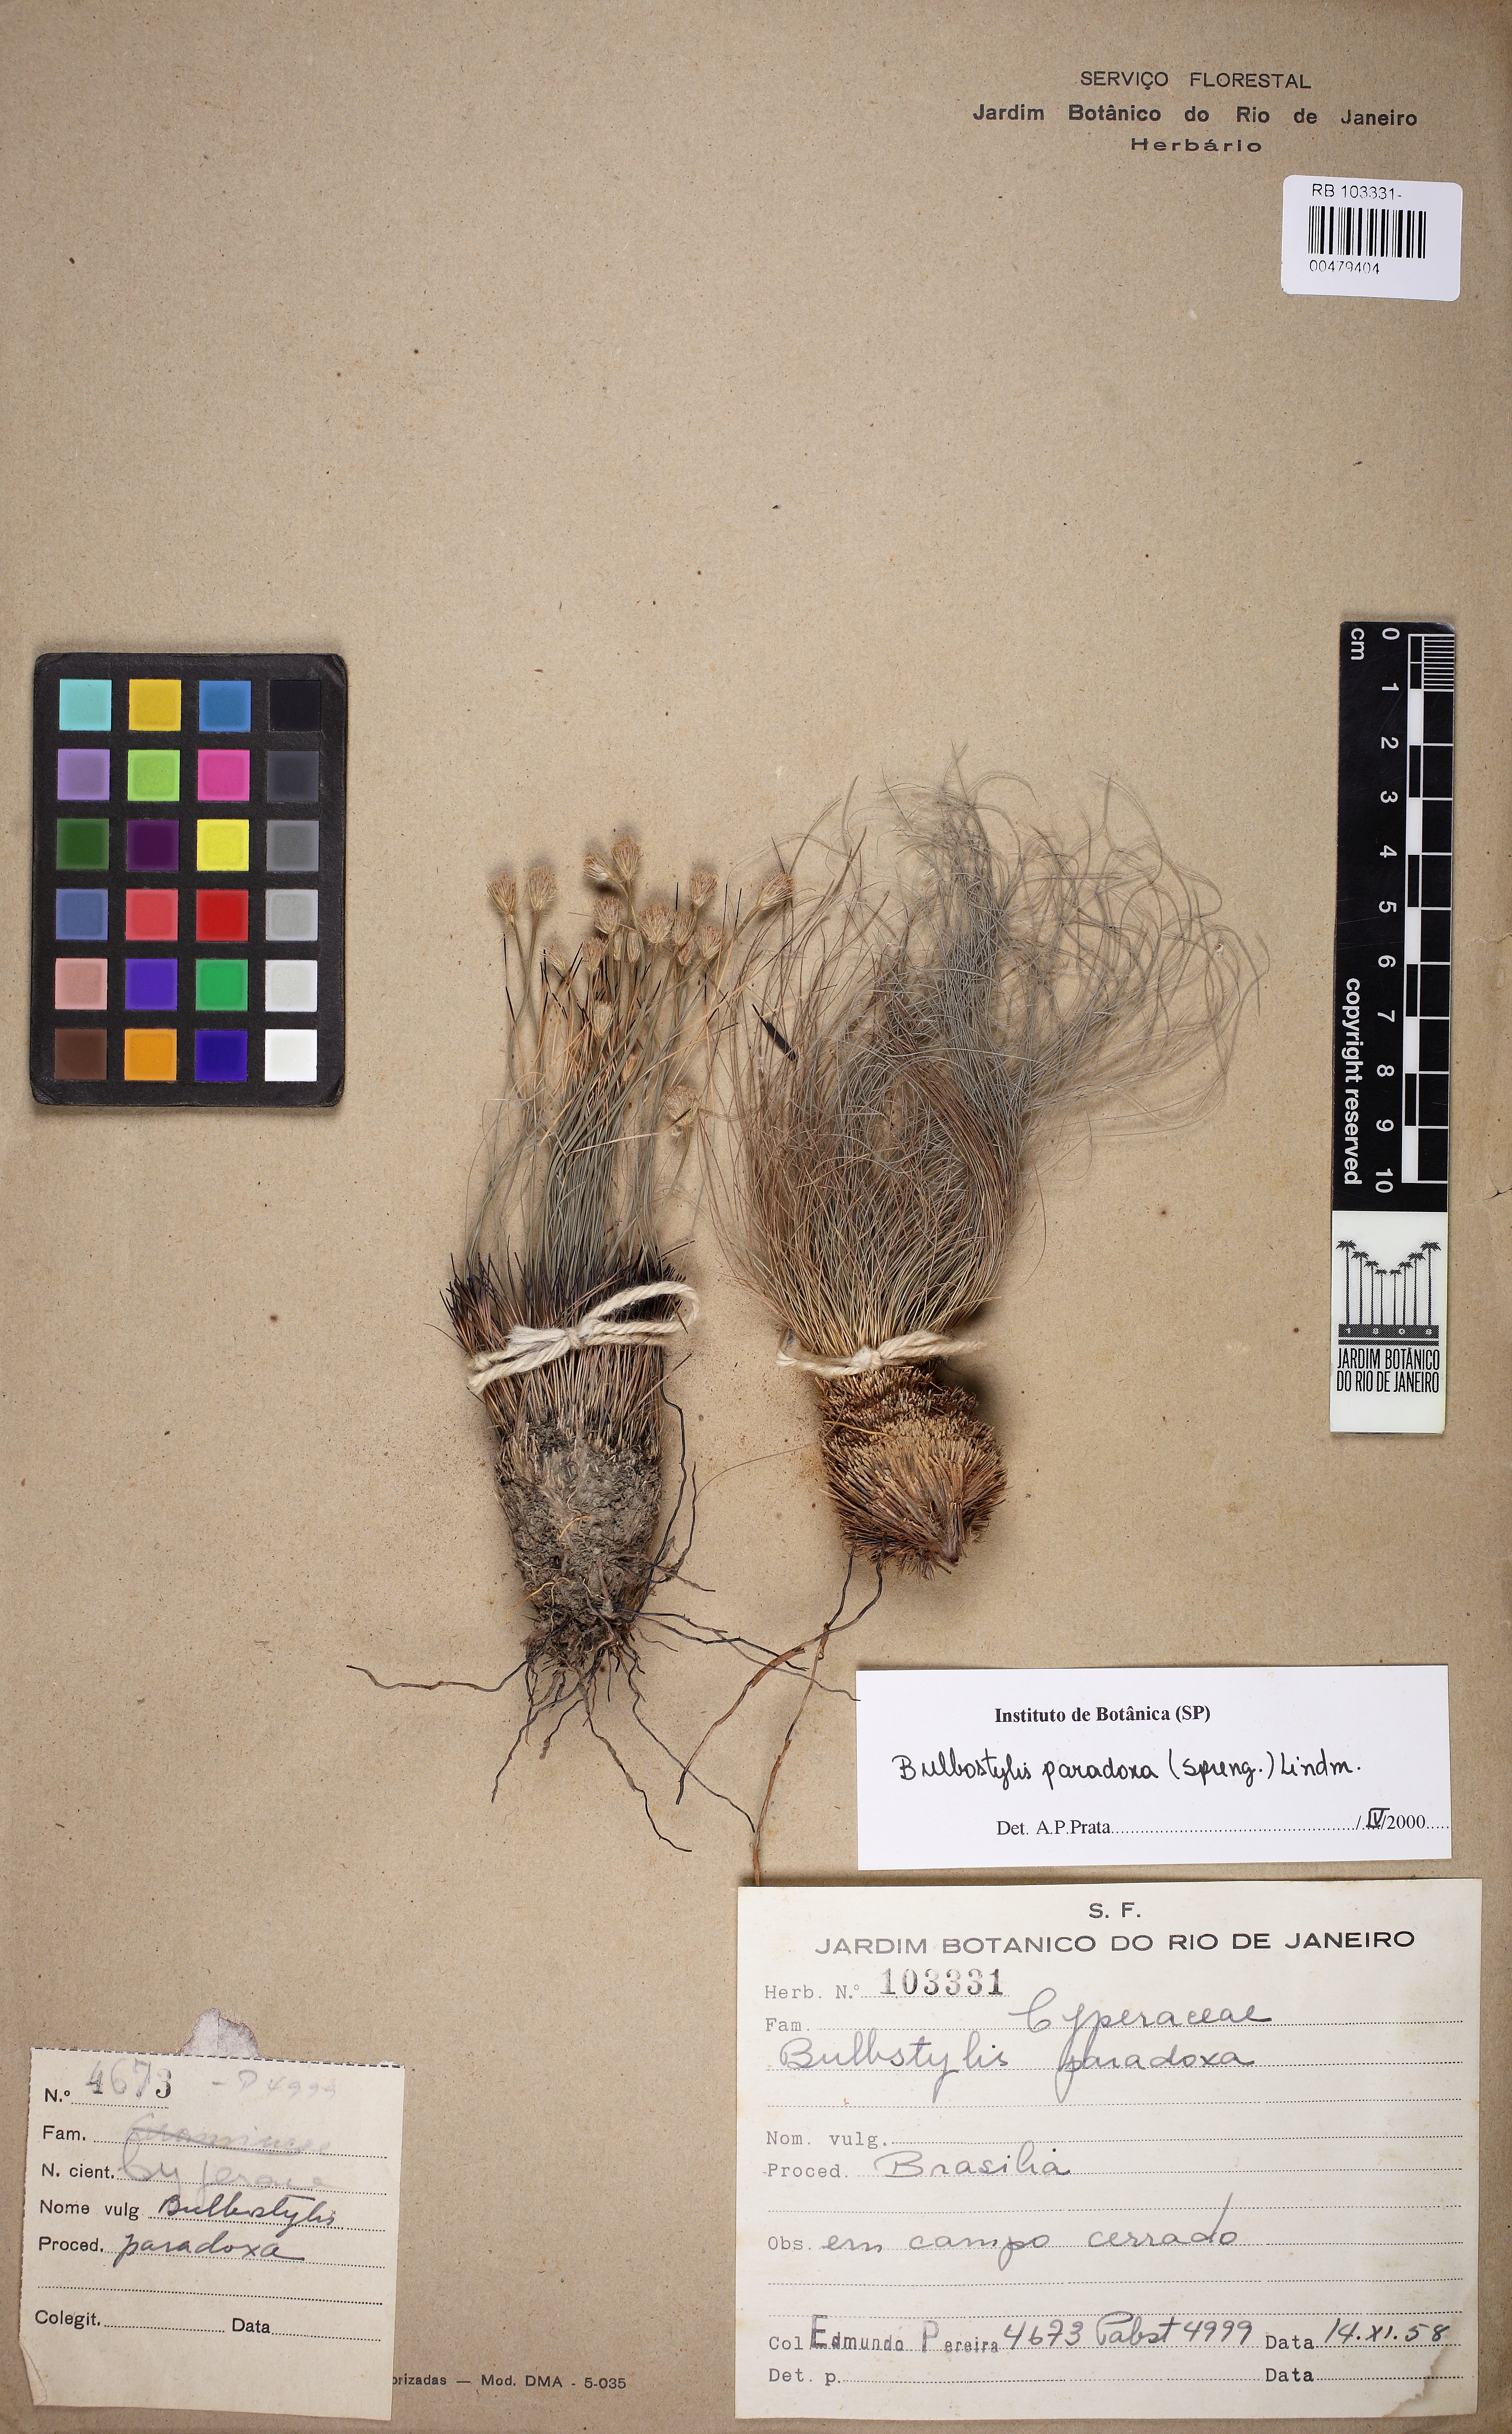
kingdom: Plantae
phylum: Tracheophyta
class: Liliopsida
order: Poales
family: Cyperaceae
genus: Bulbostylis
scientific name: Bulbostylis paradoxa
